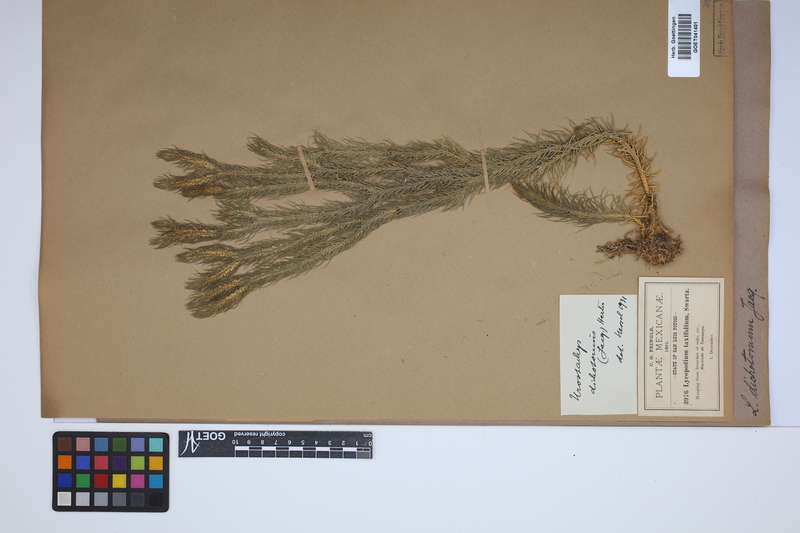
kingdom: Plantae
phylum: Tracheophyta
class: Lycopodiopsida
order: Lycopodiales
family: Lycopodiaceae
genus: Phlegmariurus
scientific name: Phlegmariurus dichotomus
